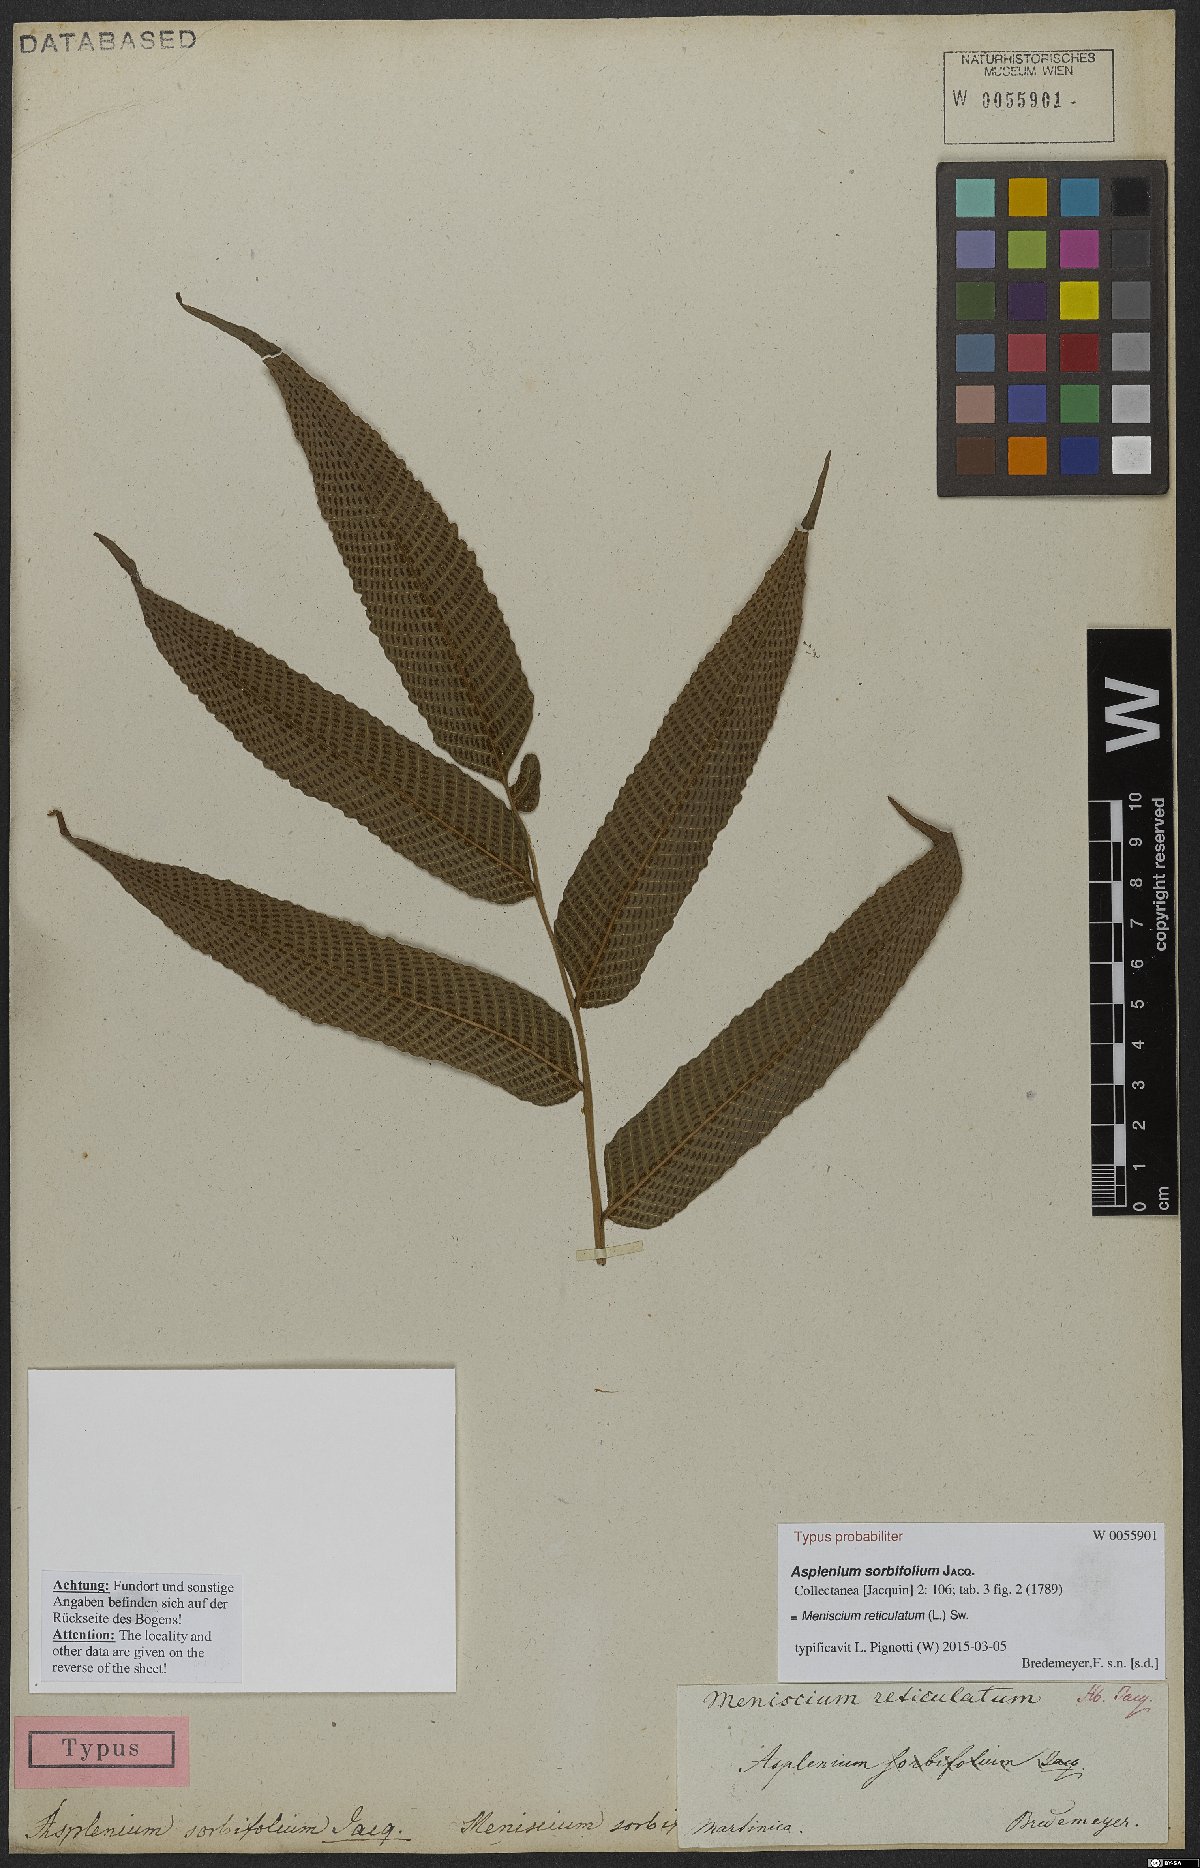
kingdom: Plantae
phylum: Tracheophyta
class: Polypodiopsida
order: Polypodiales
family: Thelypteridaceae
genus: Meniscium
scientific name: Meniscium reticulatum
